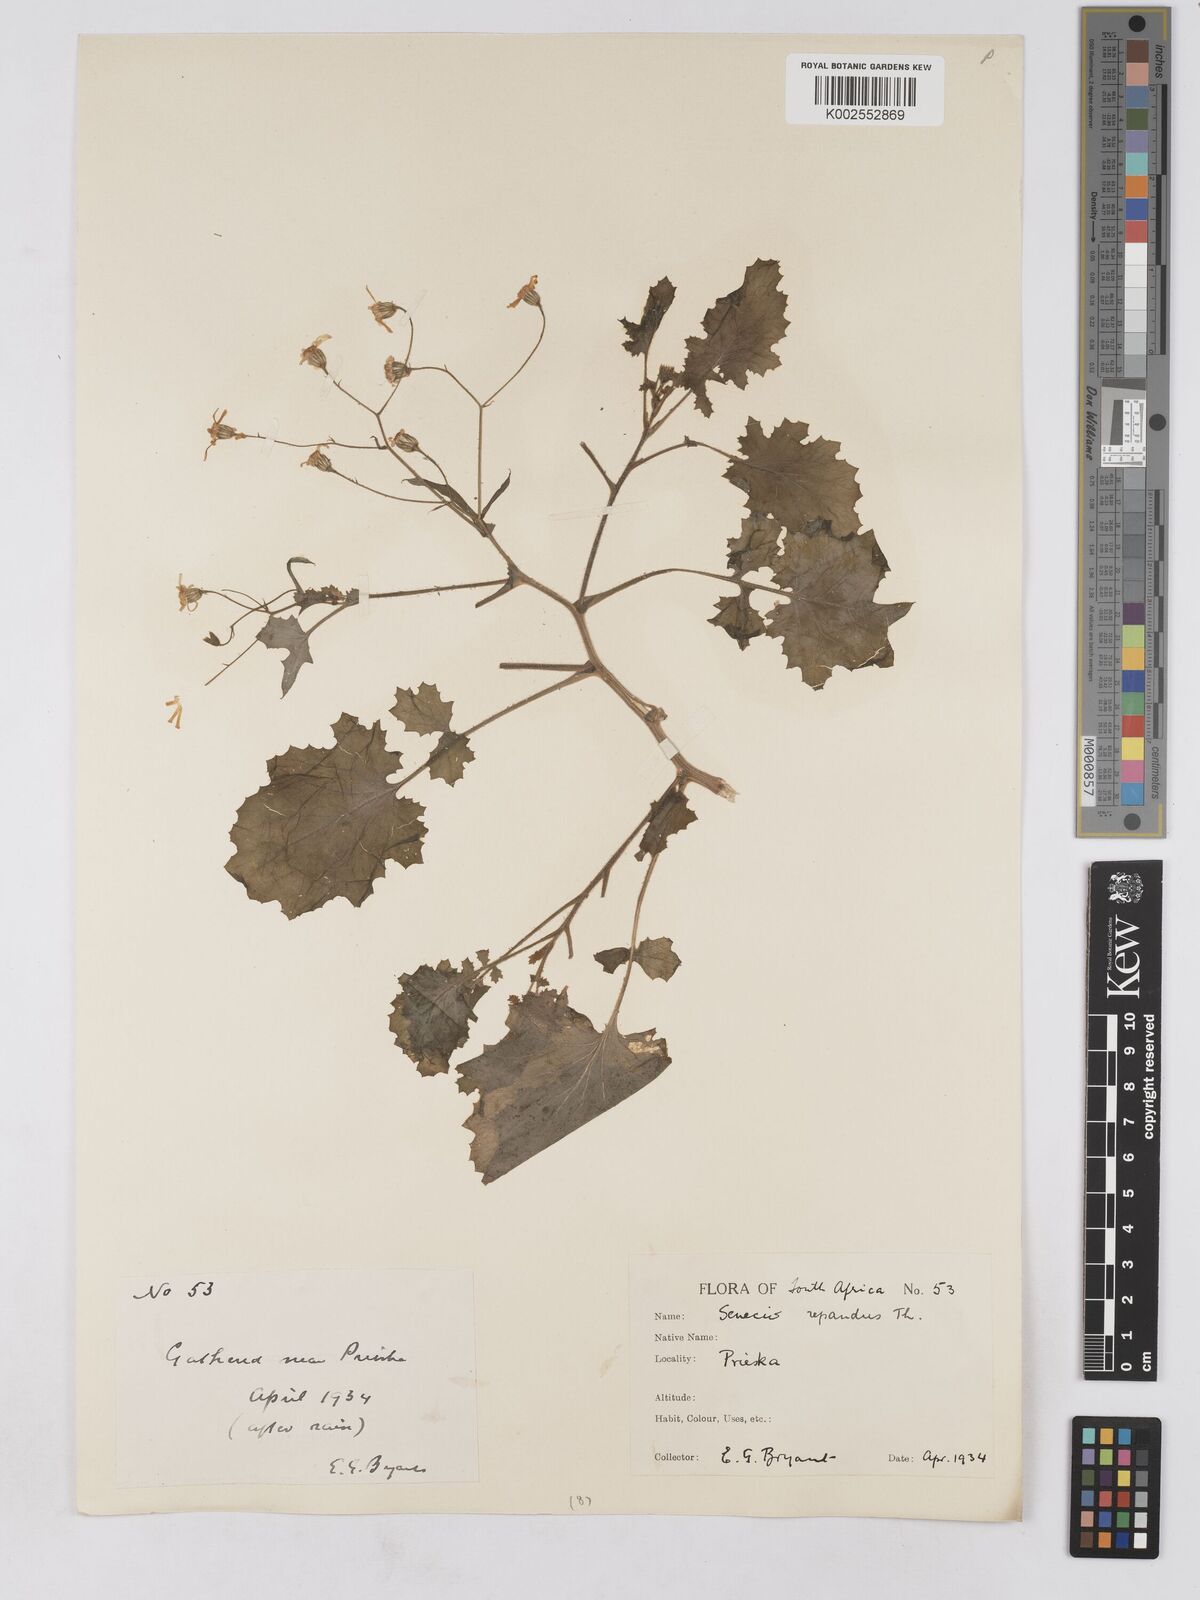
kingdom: Plantae
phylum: Tracheophyta
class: Magnoliopsida
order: Asterales
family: Asteraceae
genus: Senecio
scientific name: Senecio repandus
